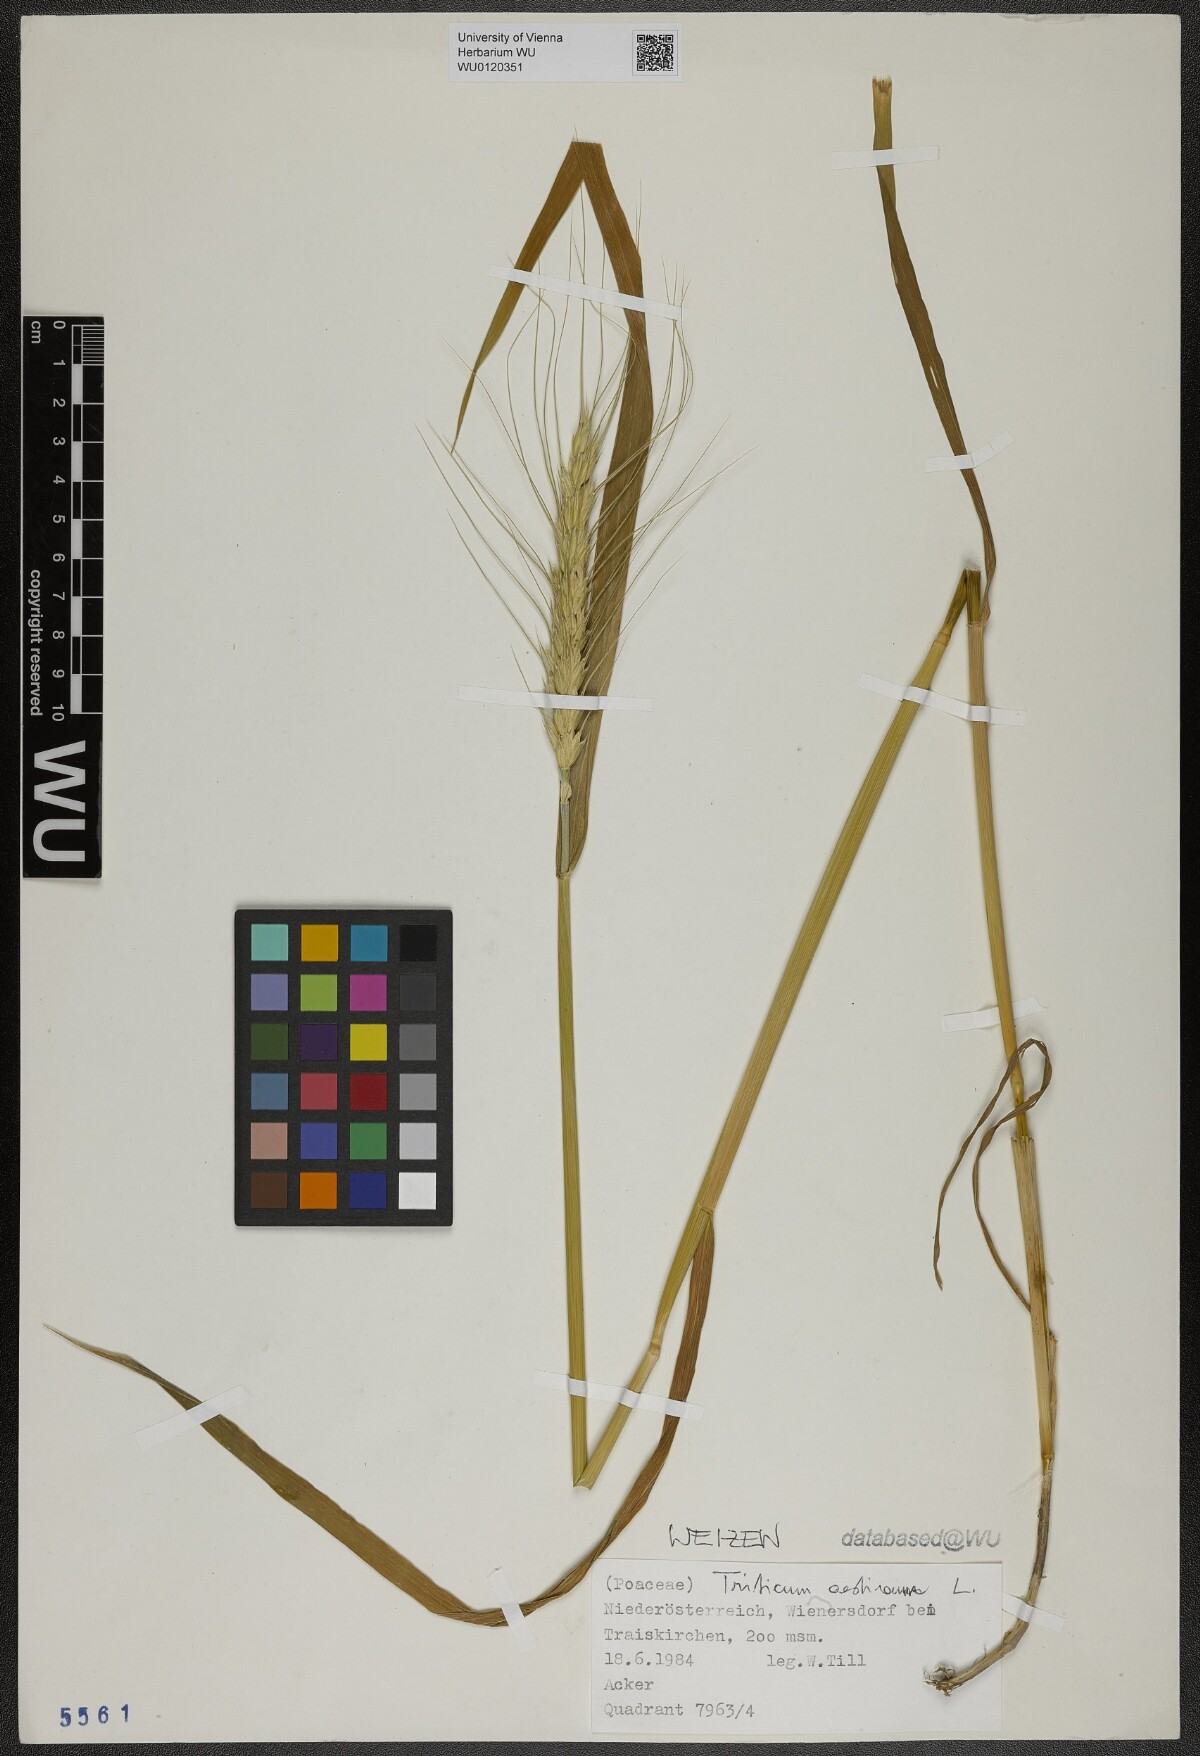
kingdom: Plantae
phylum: Tracheophyta
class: Liliopsida
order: Poales
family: Poaceae
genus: Triticum
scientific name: Triticum aestivum
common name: Common wheat
